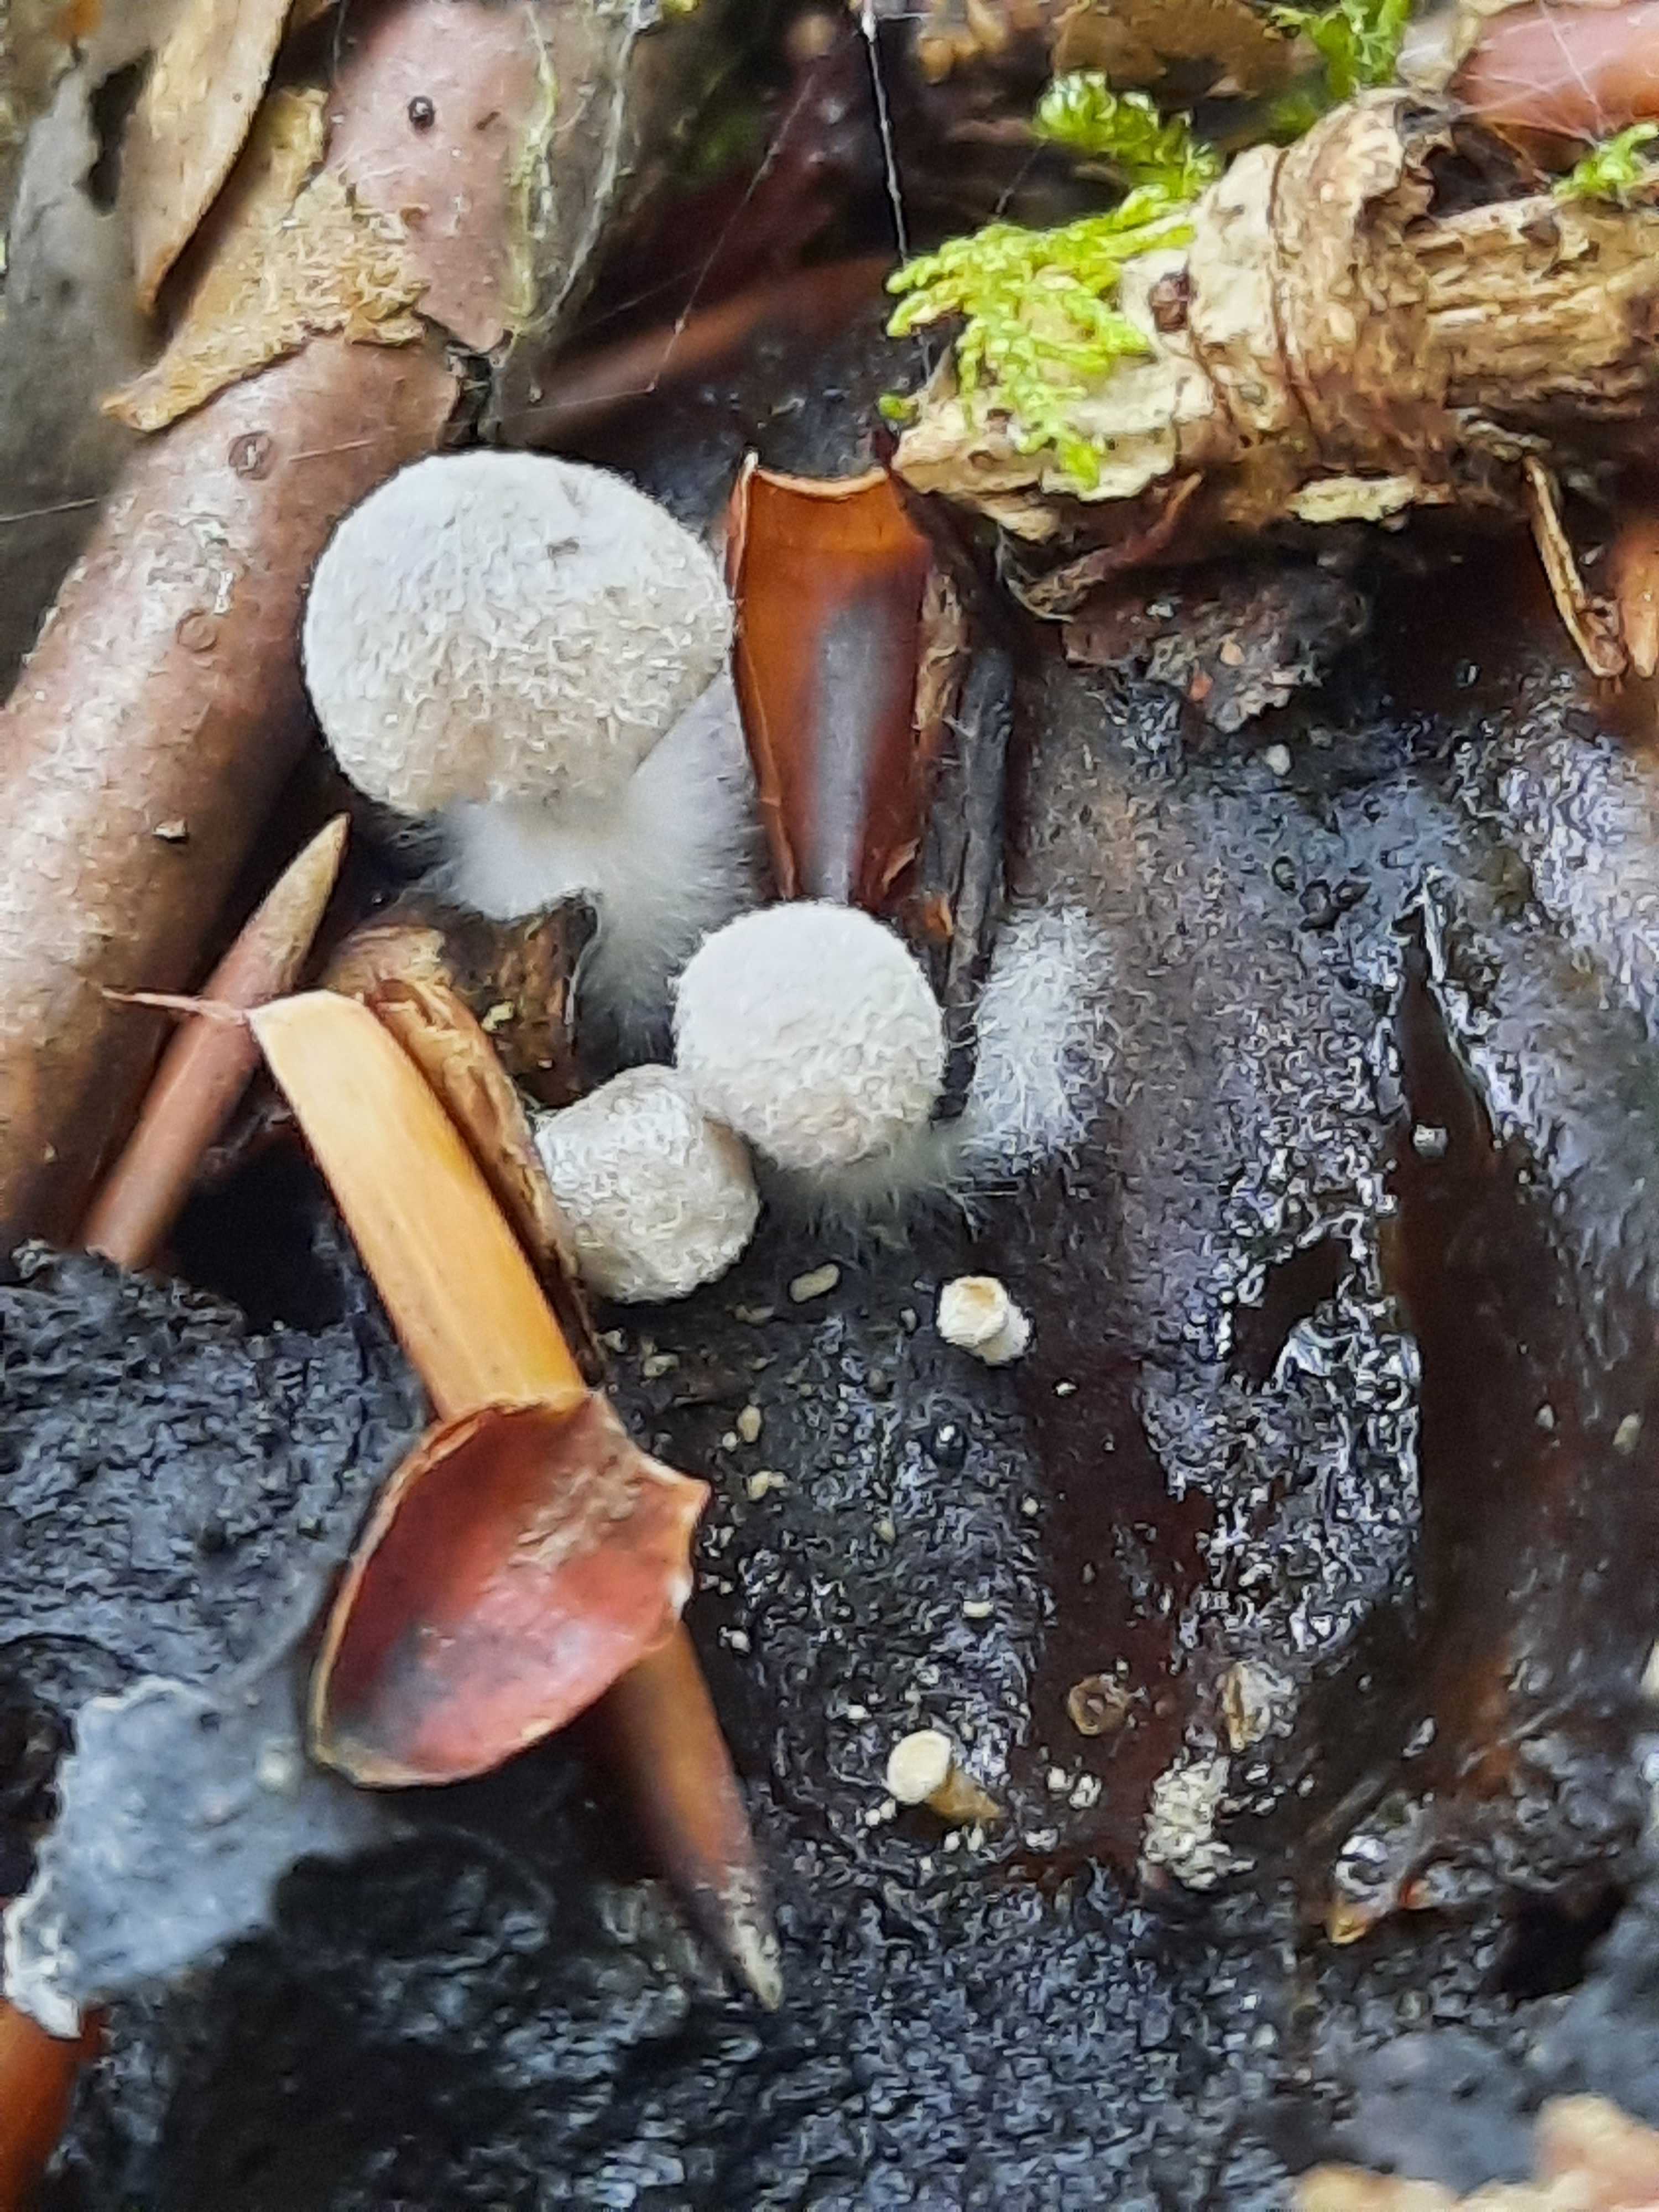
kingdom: Fungi
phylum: Basidiomycota
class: Agaricomycetes
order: Agaricales
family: Lyophyllaceae
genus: Asterophora
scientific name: Asterophora parasitica
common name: grå snyltehat
